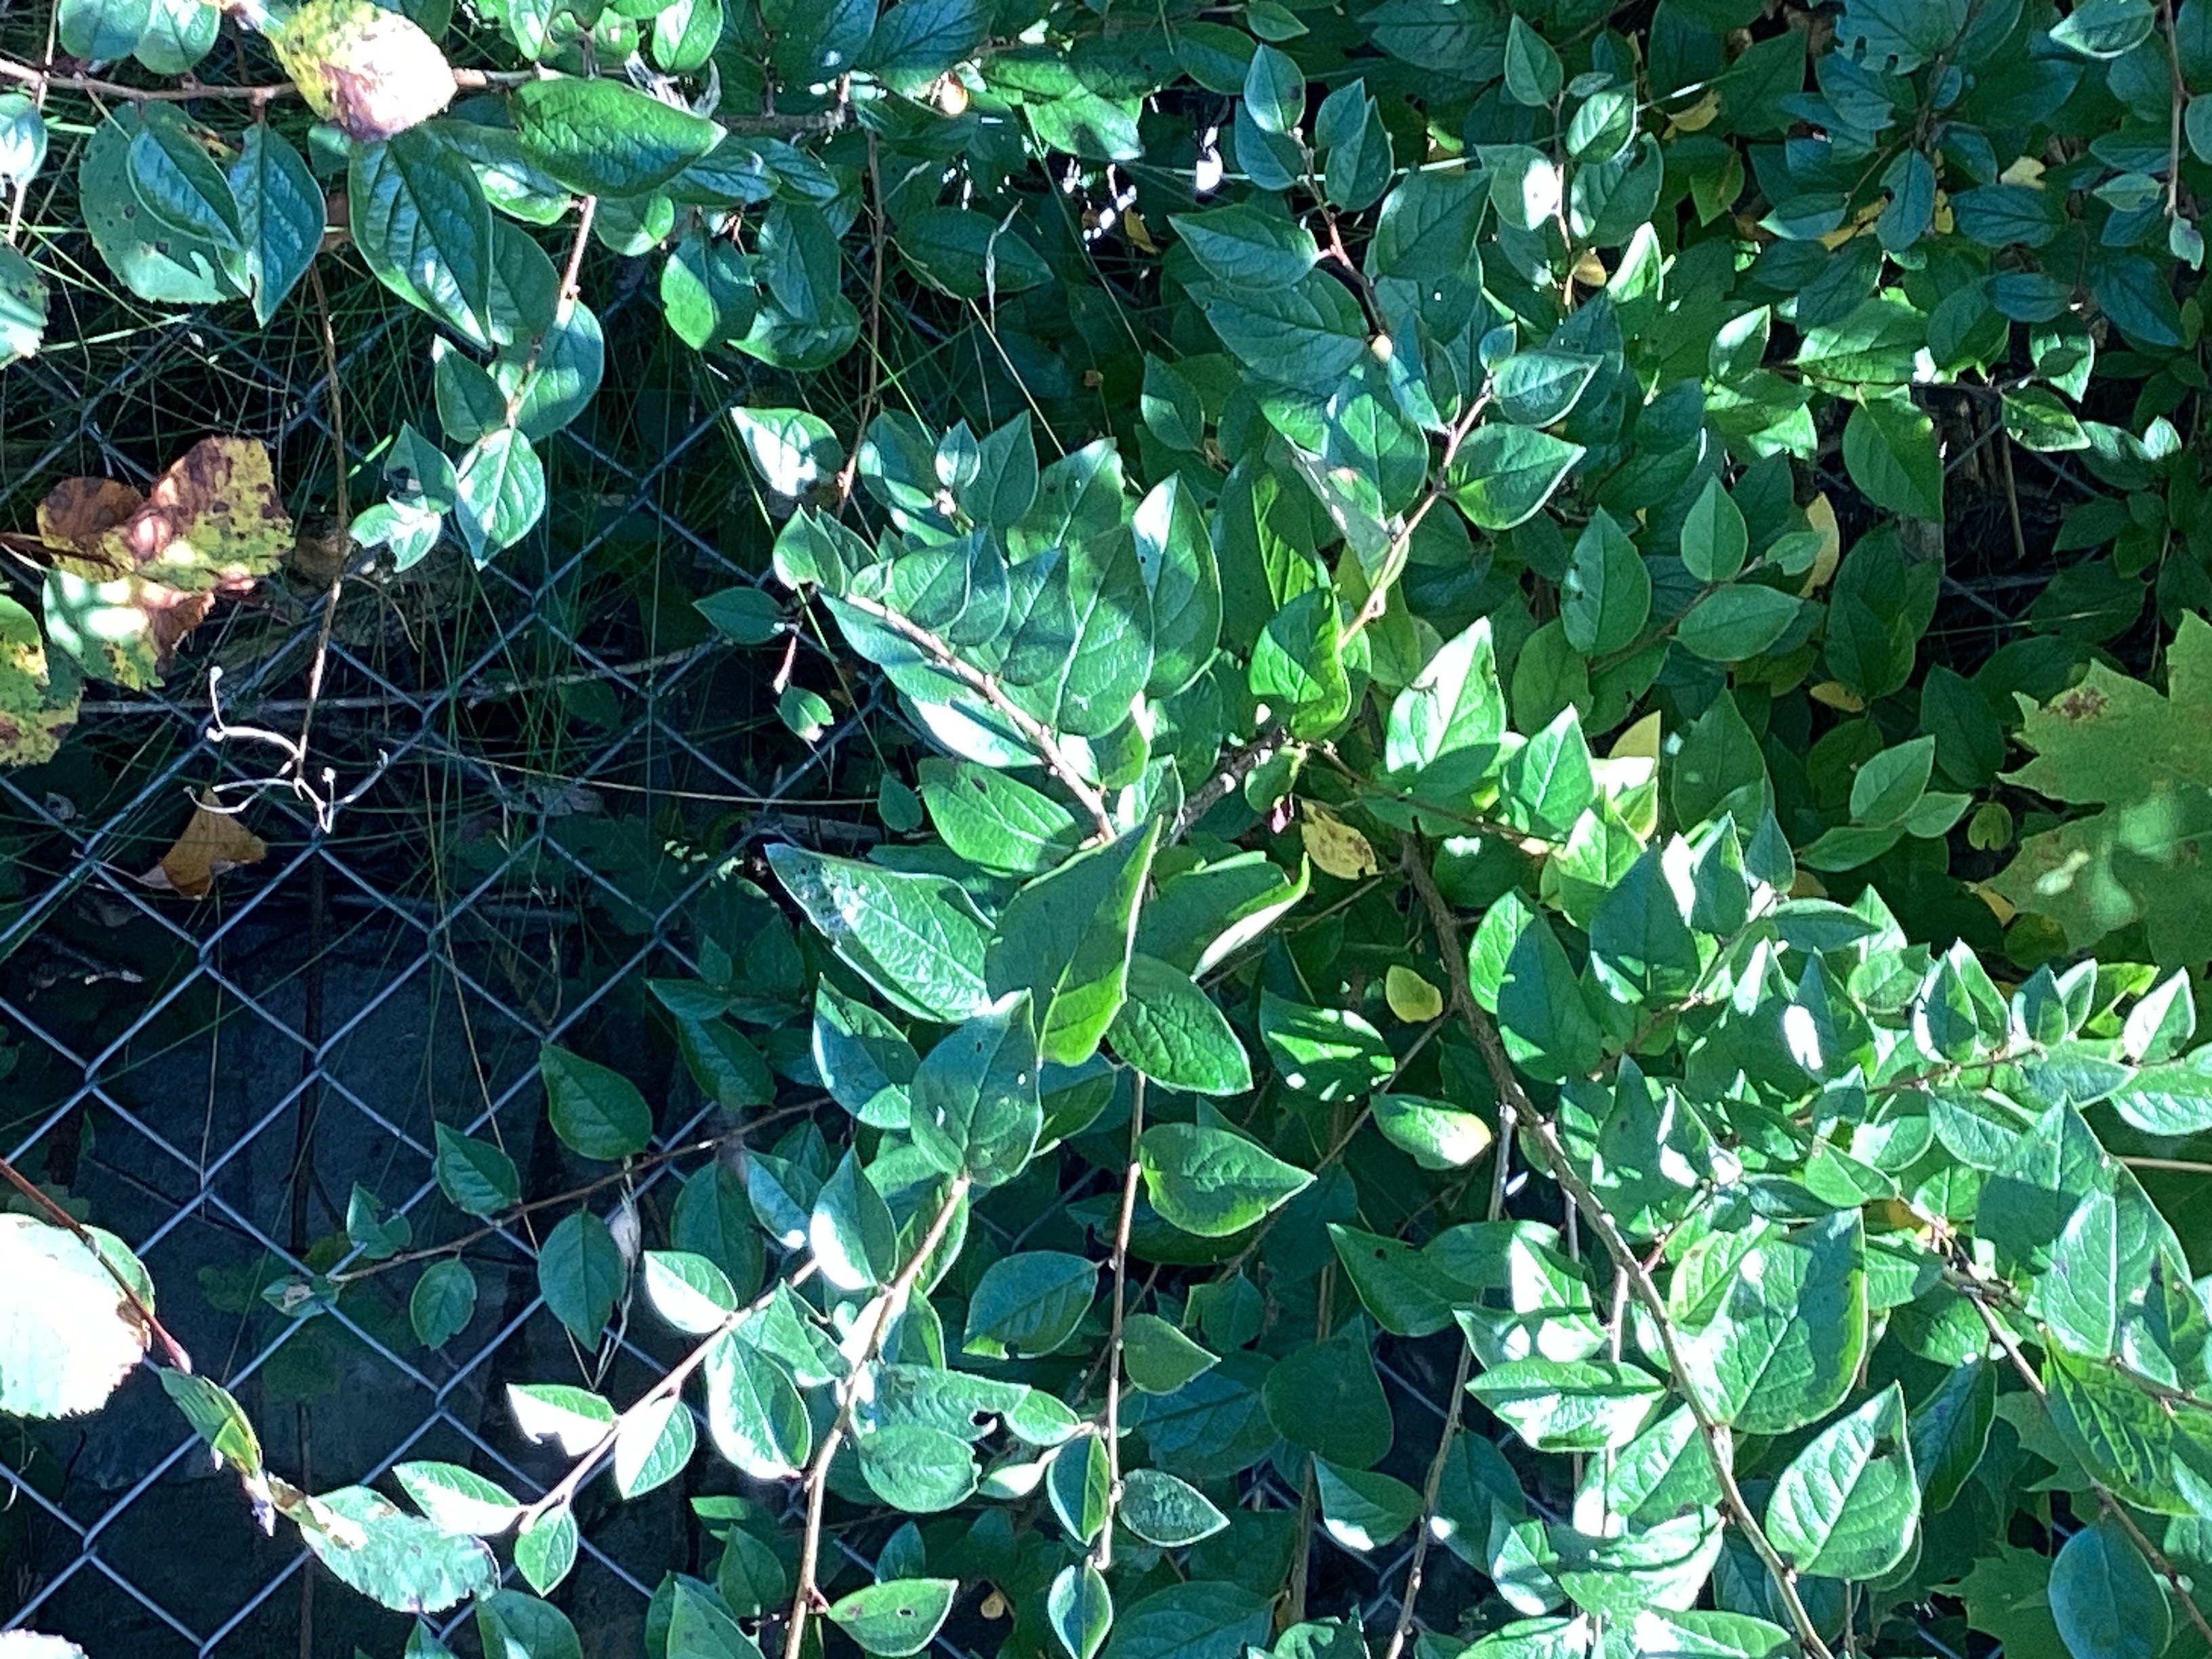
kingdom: Plantae
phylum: Tracheophyta
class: Magnoliopsida
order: Rosales
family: Rosaceae
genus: Cotoneaster
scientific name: Cotoneaster acutifolius
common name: blankmispel
